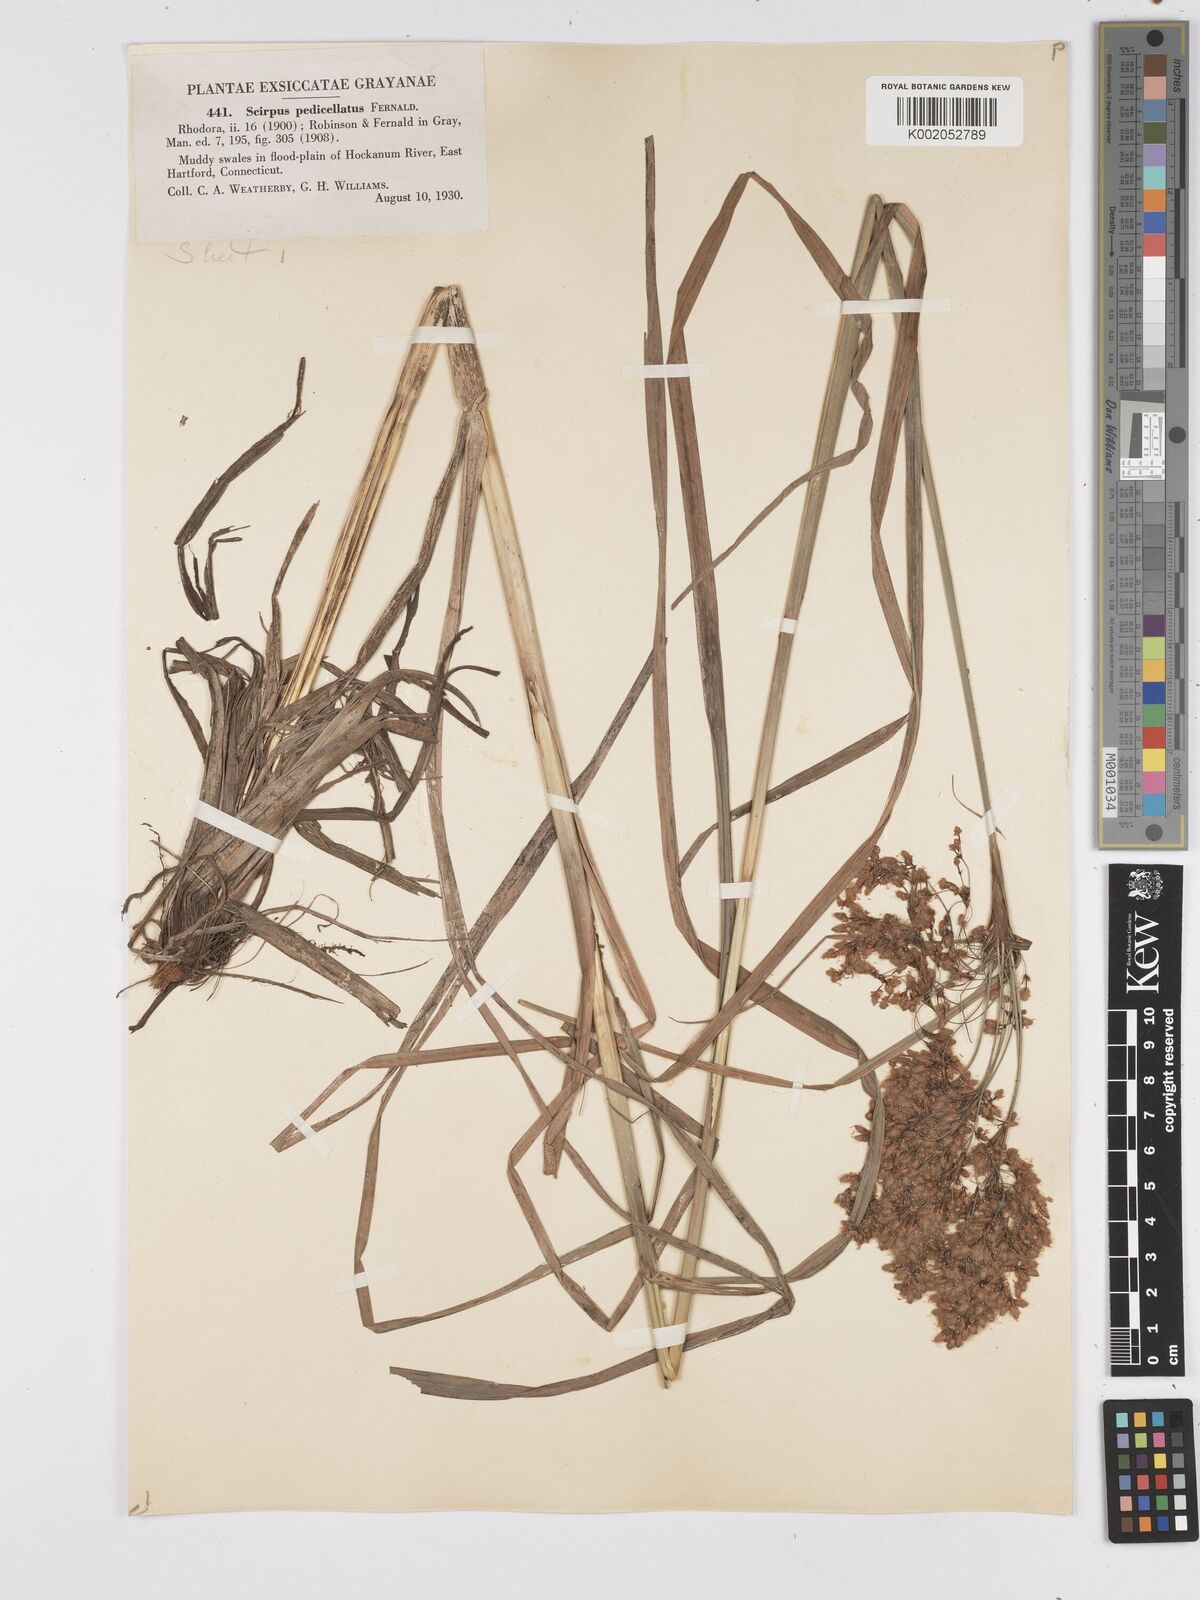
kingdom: Plantae
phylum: Tracheophyta
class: Liliopsida
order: Poales
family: Cyperaceae
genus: Scirpus
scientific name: Scirpus cyperinus
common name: Black-sheathed bulrush
